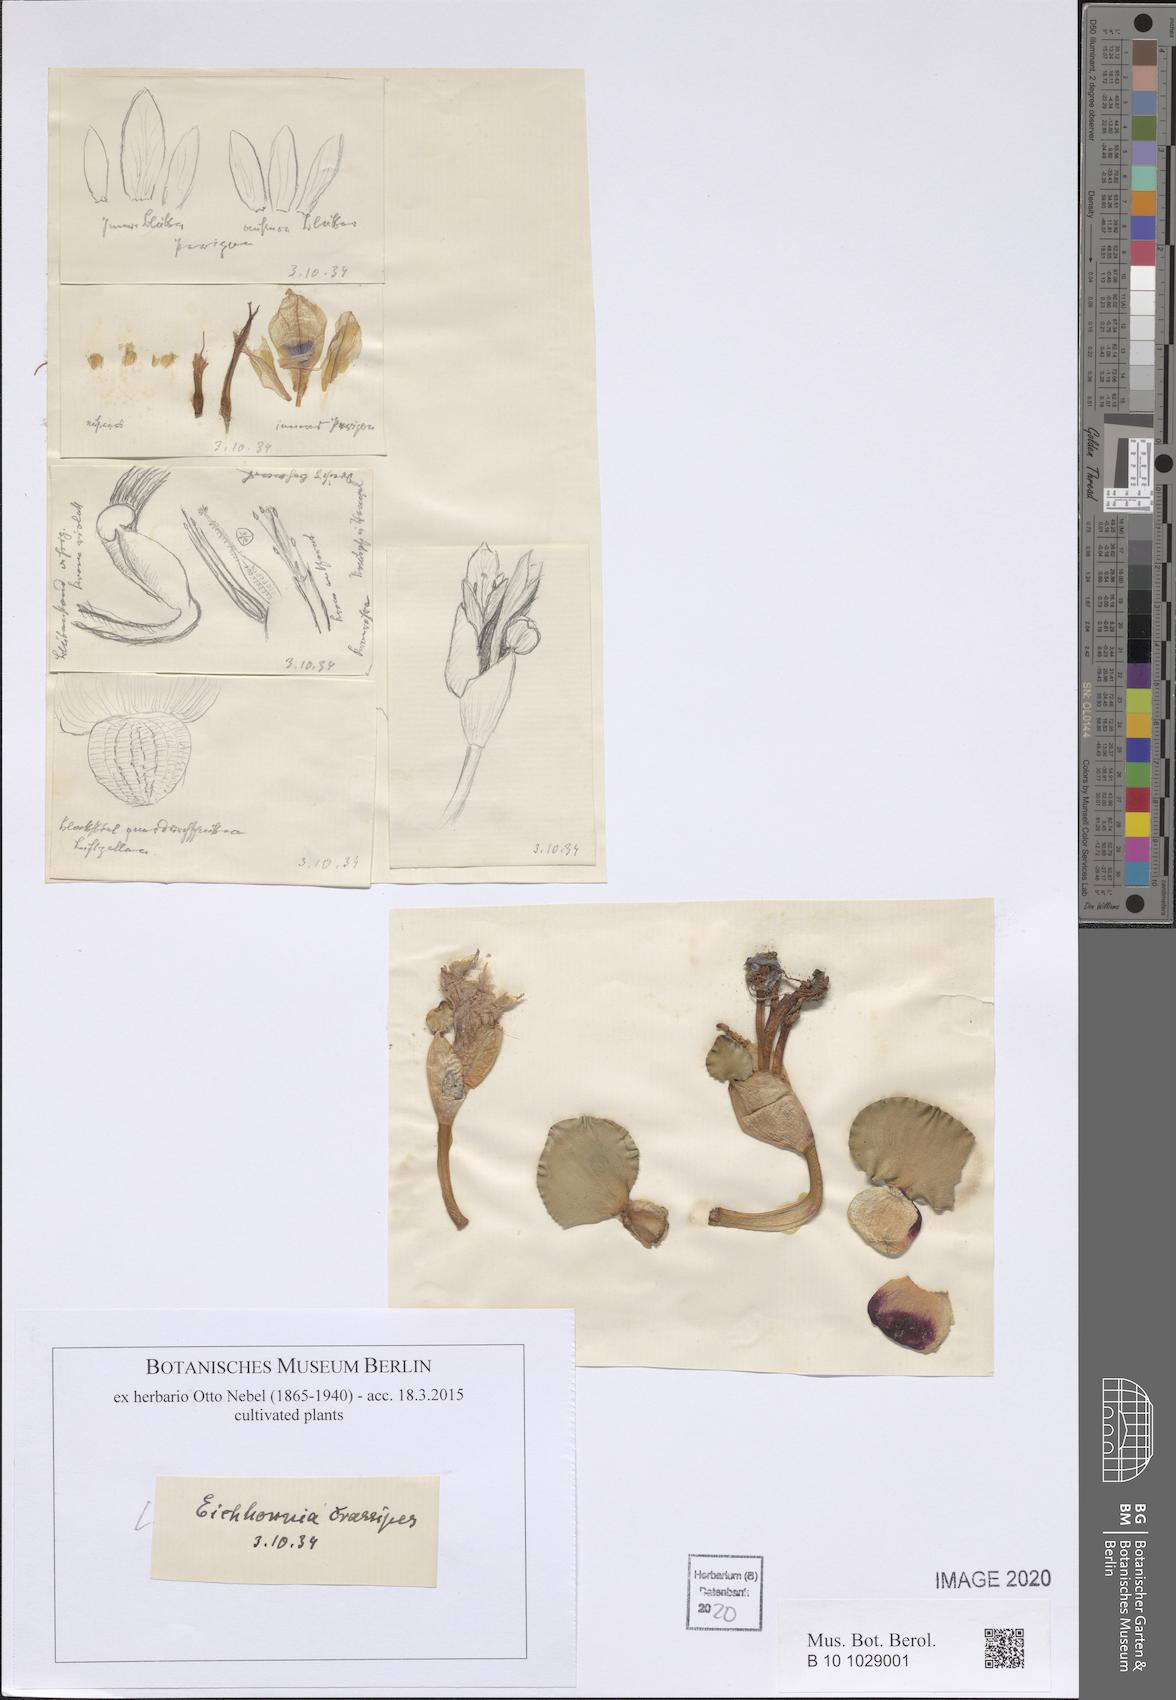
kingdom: Plantae
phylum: Tracheophyta
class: Liliopsida
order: Commelinales
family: Pontederiaceae
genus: Pontederia
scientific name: Pontederia crassipes
